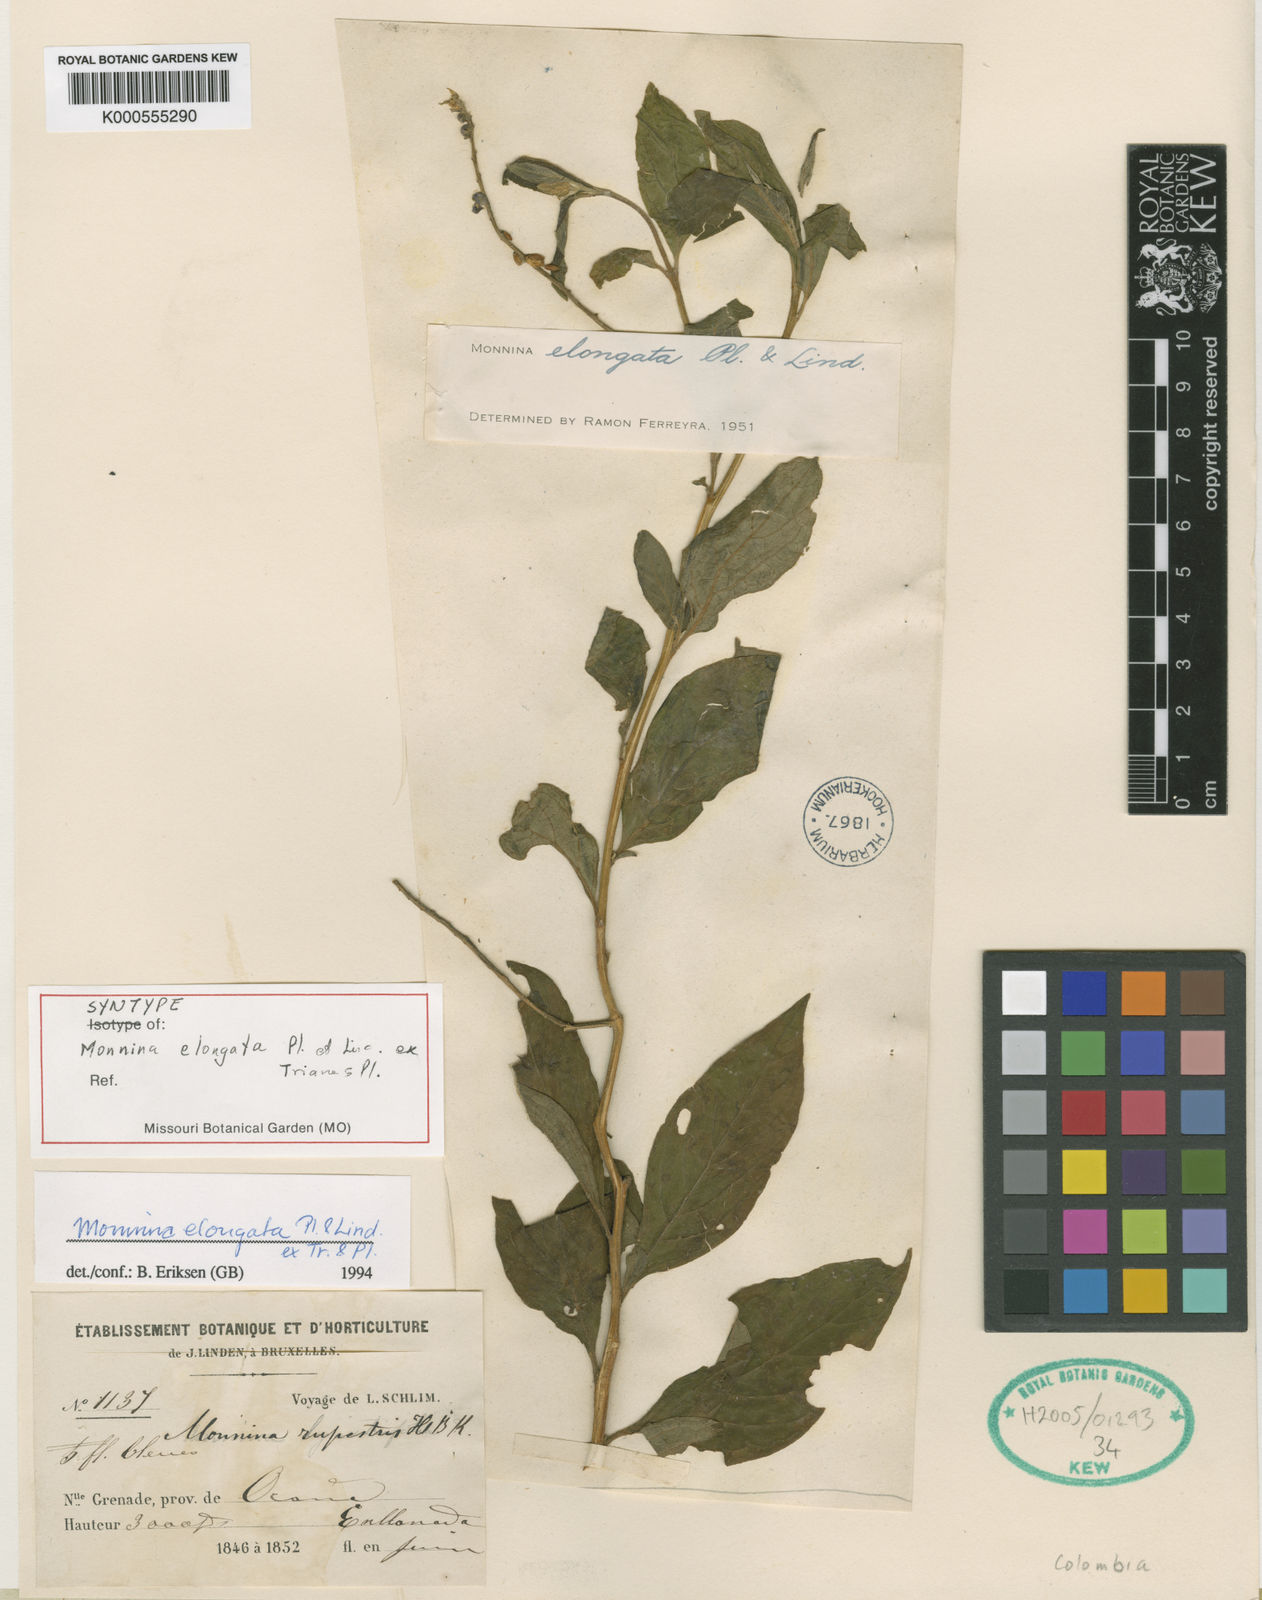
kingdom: Plantae
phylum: Tracheophyta
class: Magnoliopsida
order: Fabales
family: Polygalaceae
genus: Monnina
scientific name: Monnina elongata
